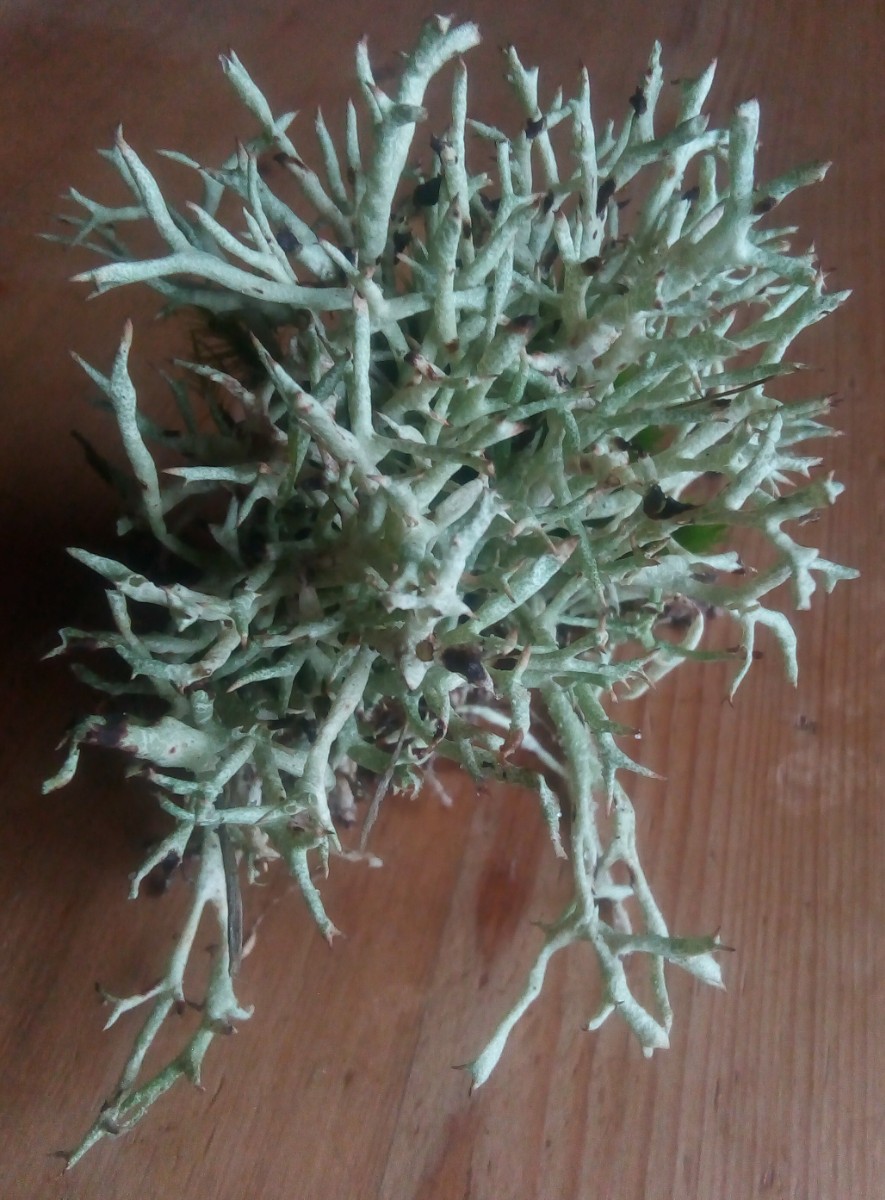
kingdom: Fungi
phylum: Ascomycota
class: Lecanoromycetes
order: Lecanorales
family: Cladoniaceae
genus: Cladonia
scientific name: Cladonia uncialis
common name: pigget bægerlav
